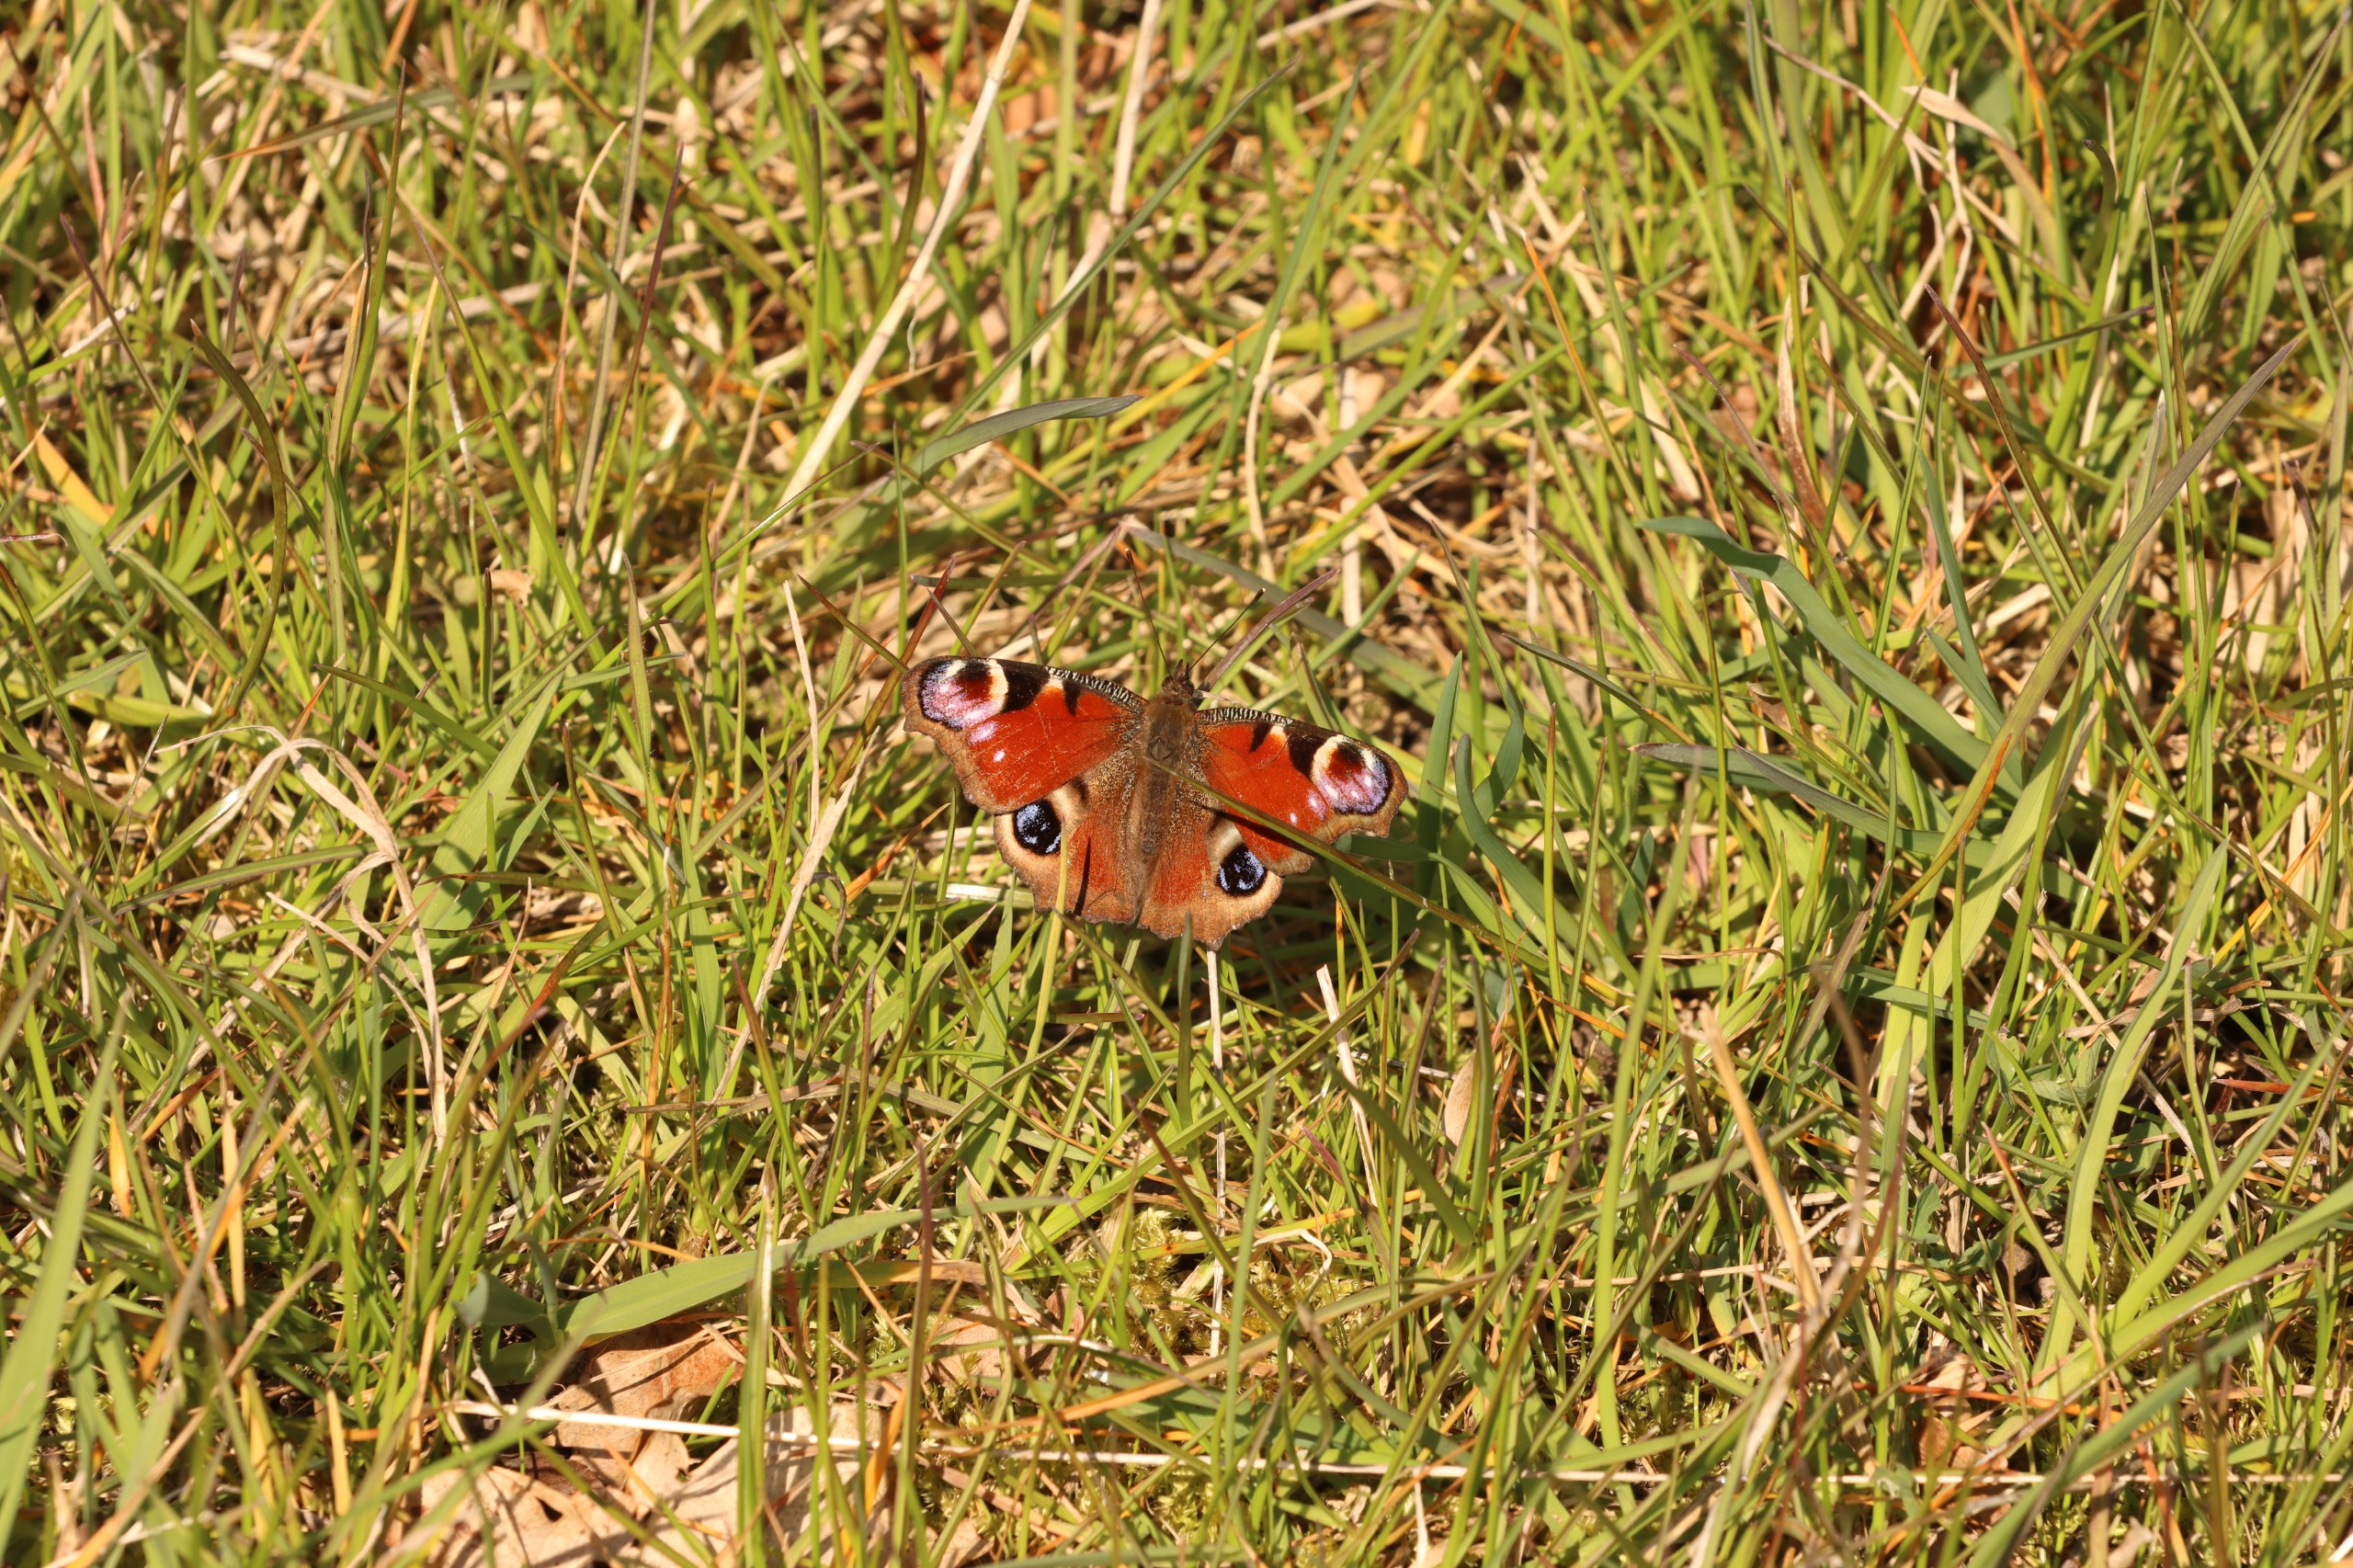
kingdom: Animalia
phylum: Arthropoda
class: Insecta
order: Lepidoptera
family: Nymphalidae
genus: Aglais
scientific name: Aglais io
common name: Dagpåfugleøje
